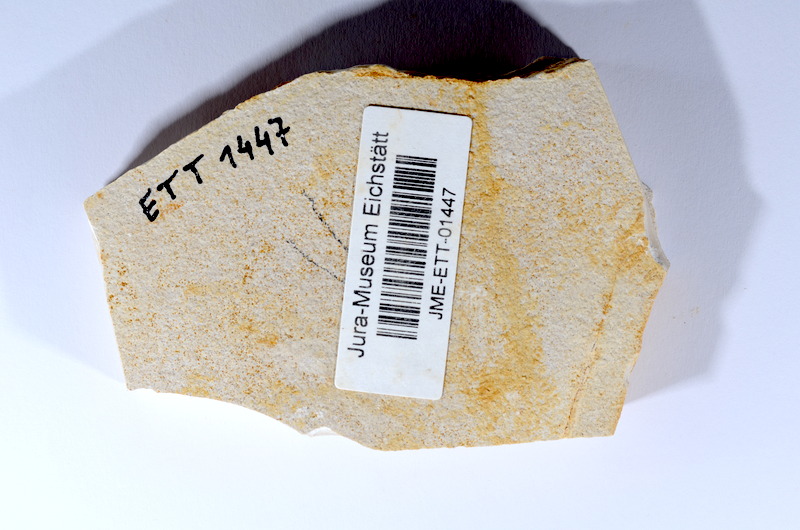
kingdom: Animalia
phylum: Chordata
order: Salmoniformes
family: Orthogonikleithridae
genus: Orthogonikleithrus
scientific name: Orthogonikleithrus hoelli
